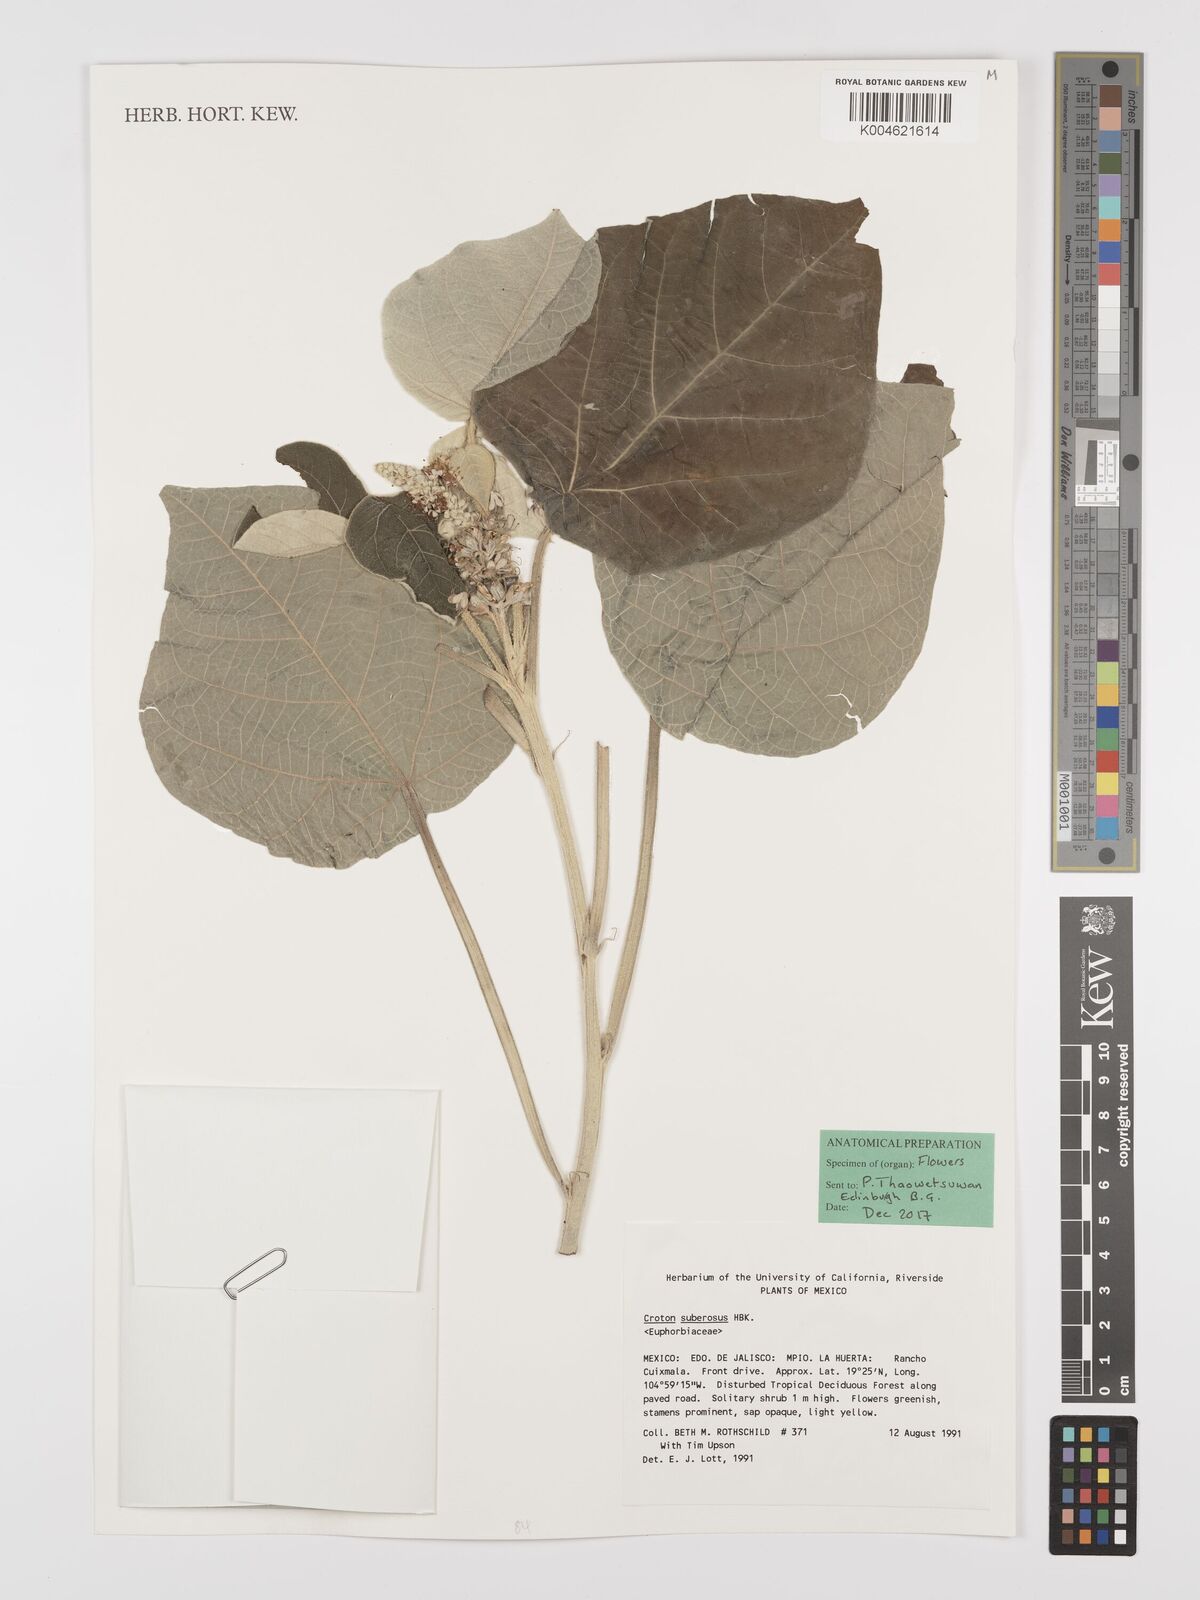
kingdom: Plantae
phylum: Tracheophyta
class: Magnoliopsida
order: Malpighiales
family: Euphorbiaceae
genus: Croton
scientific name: Croton suberosus
